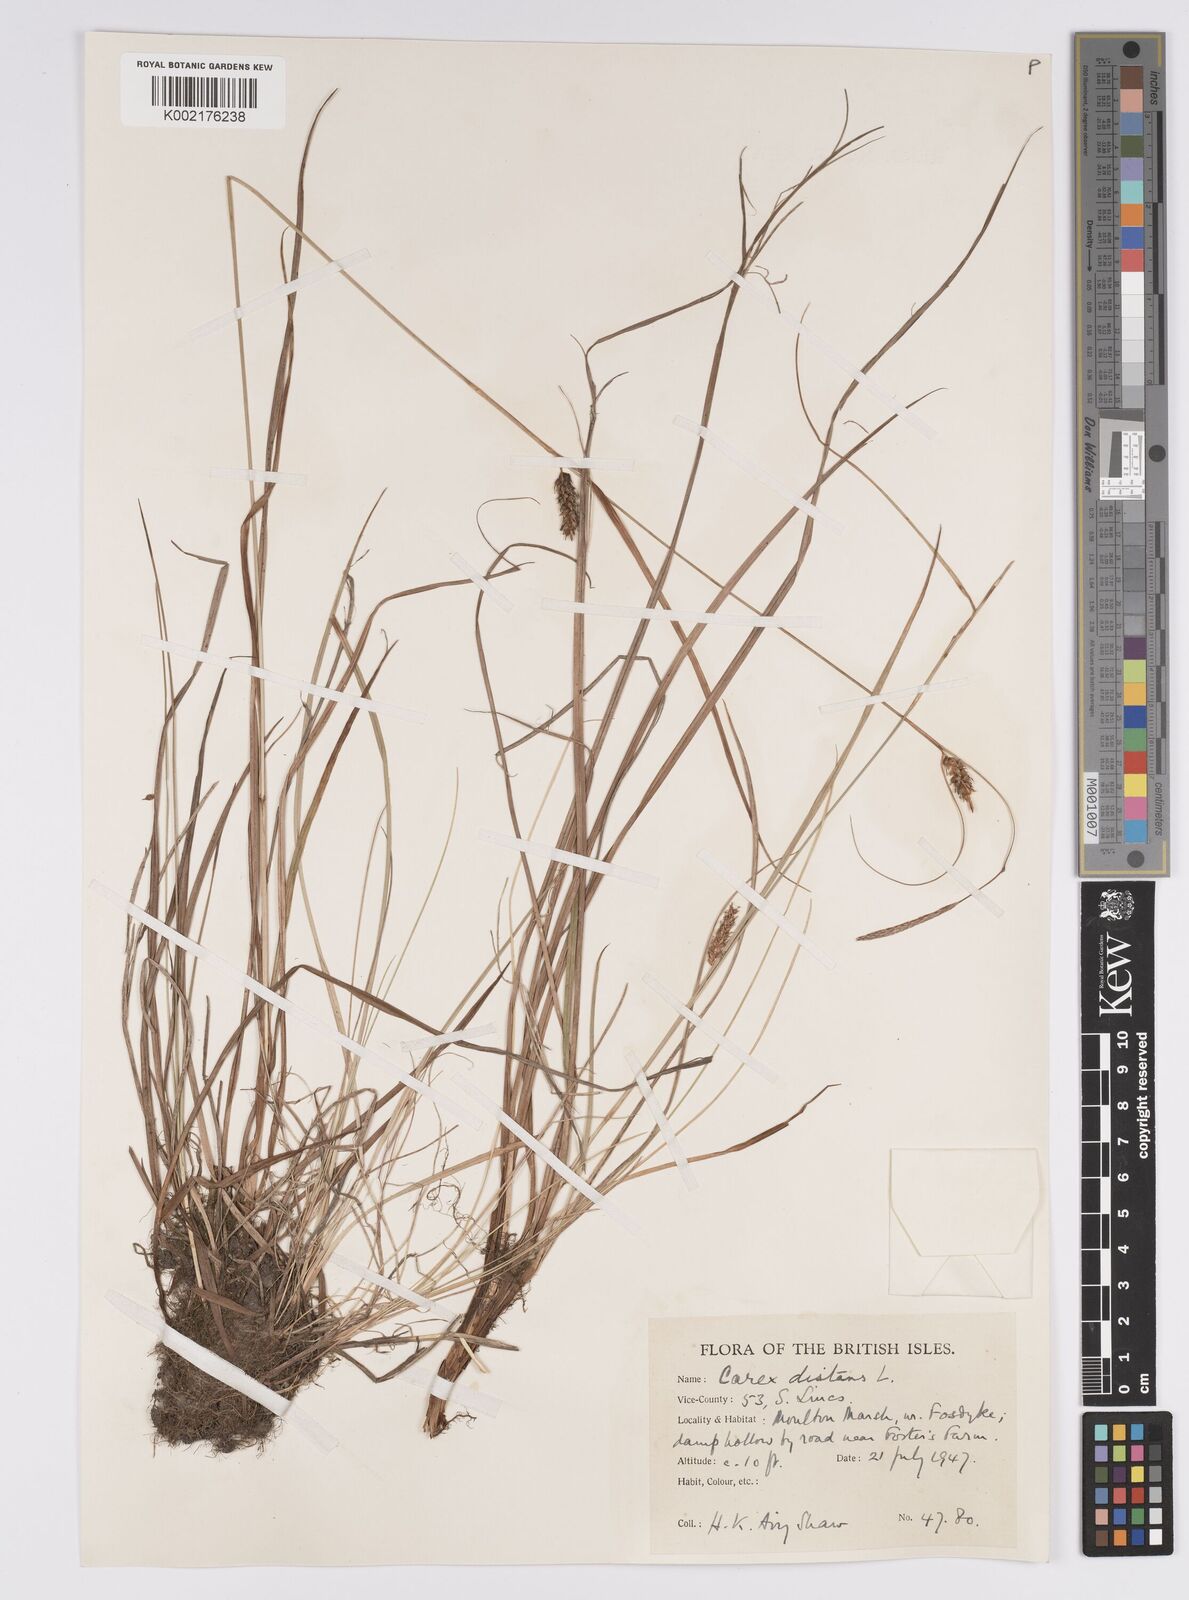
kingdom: Plantae
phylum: Tracheophyta
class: Liliopsida
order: Poales
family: Cyperaceae
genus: Carex
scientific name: Carex distans
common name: Distant sedge
